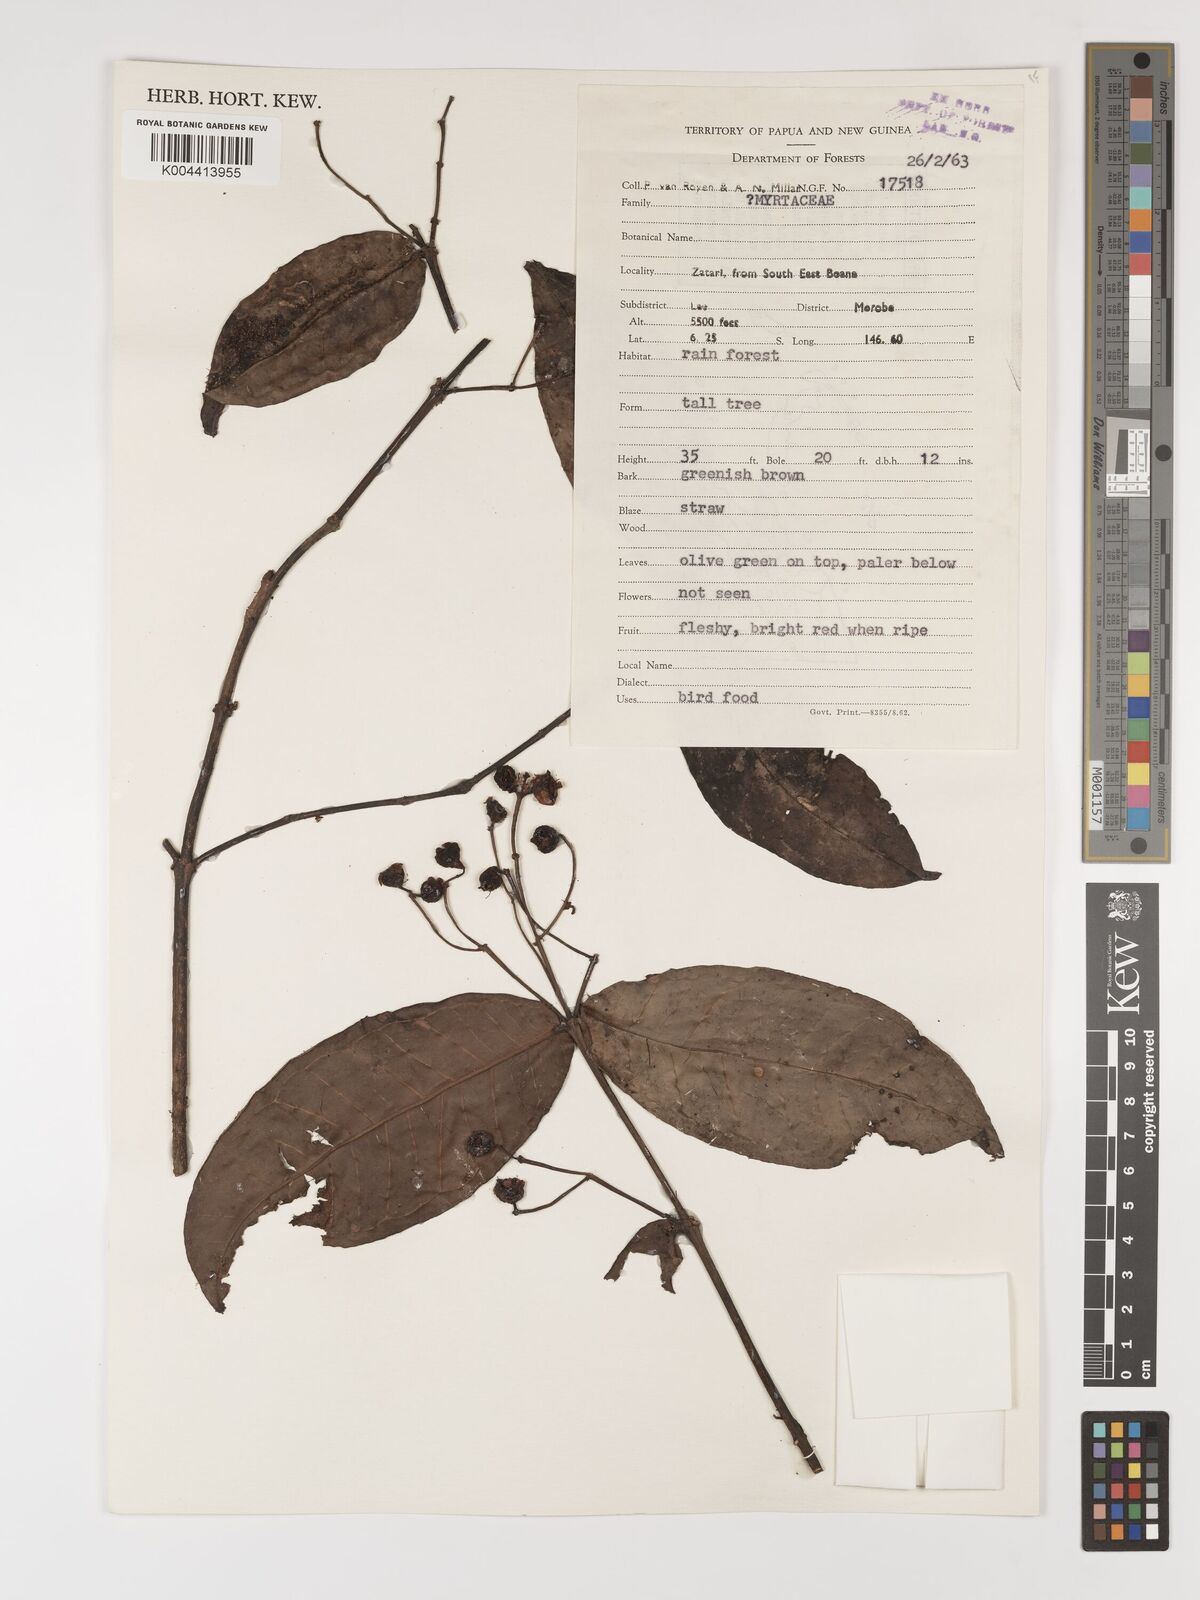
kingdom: Plantae
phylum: Tracheophyta
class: Magnoliopsida
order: Myrtales
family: Myrtaceae
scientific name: Myrtaceae
